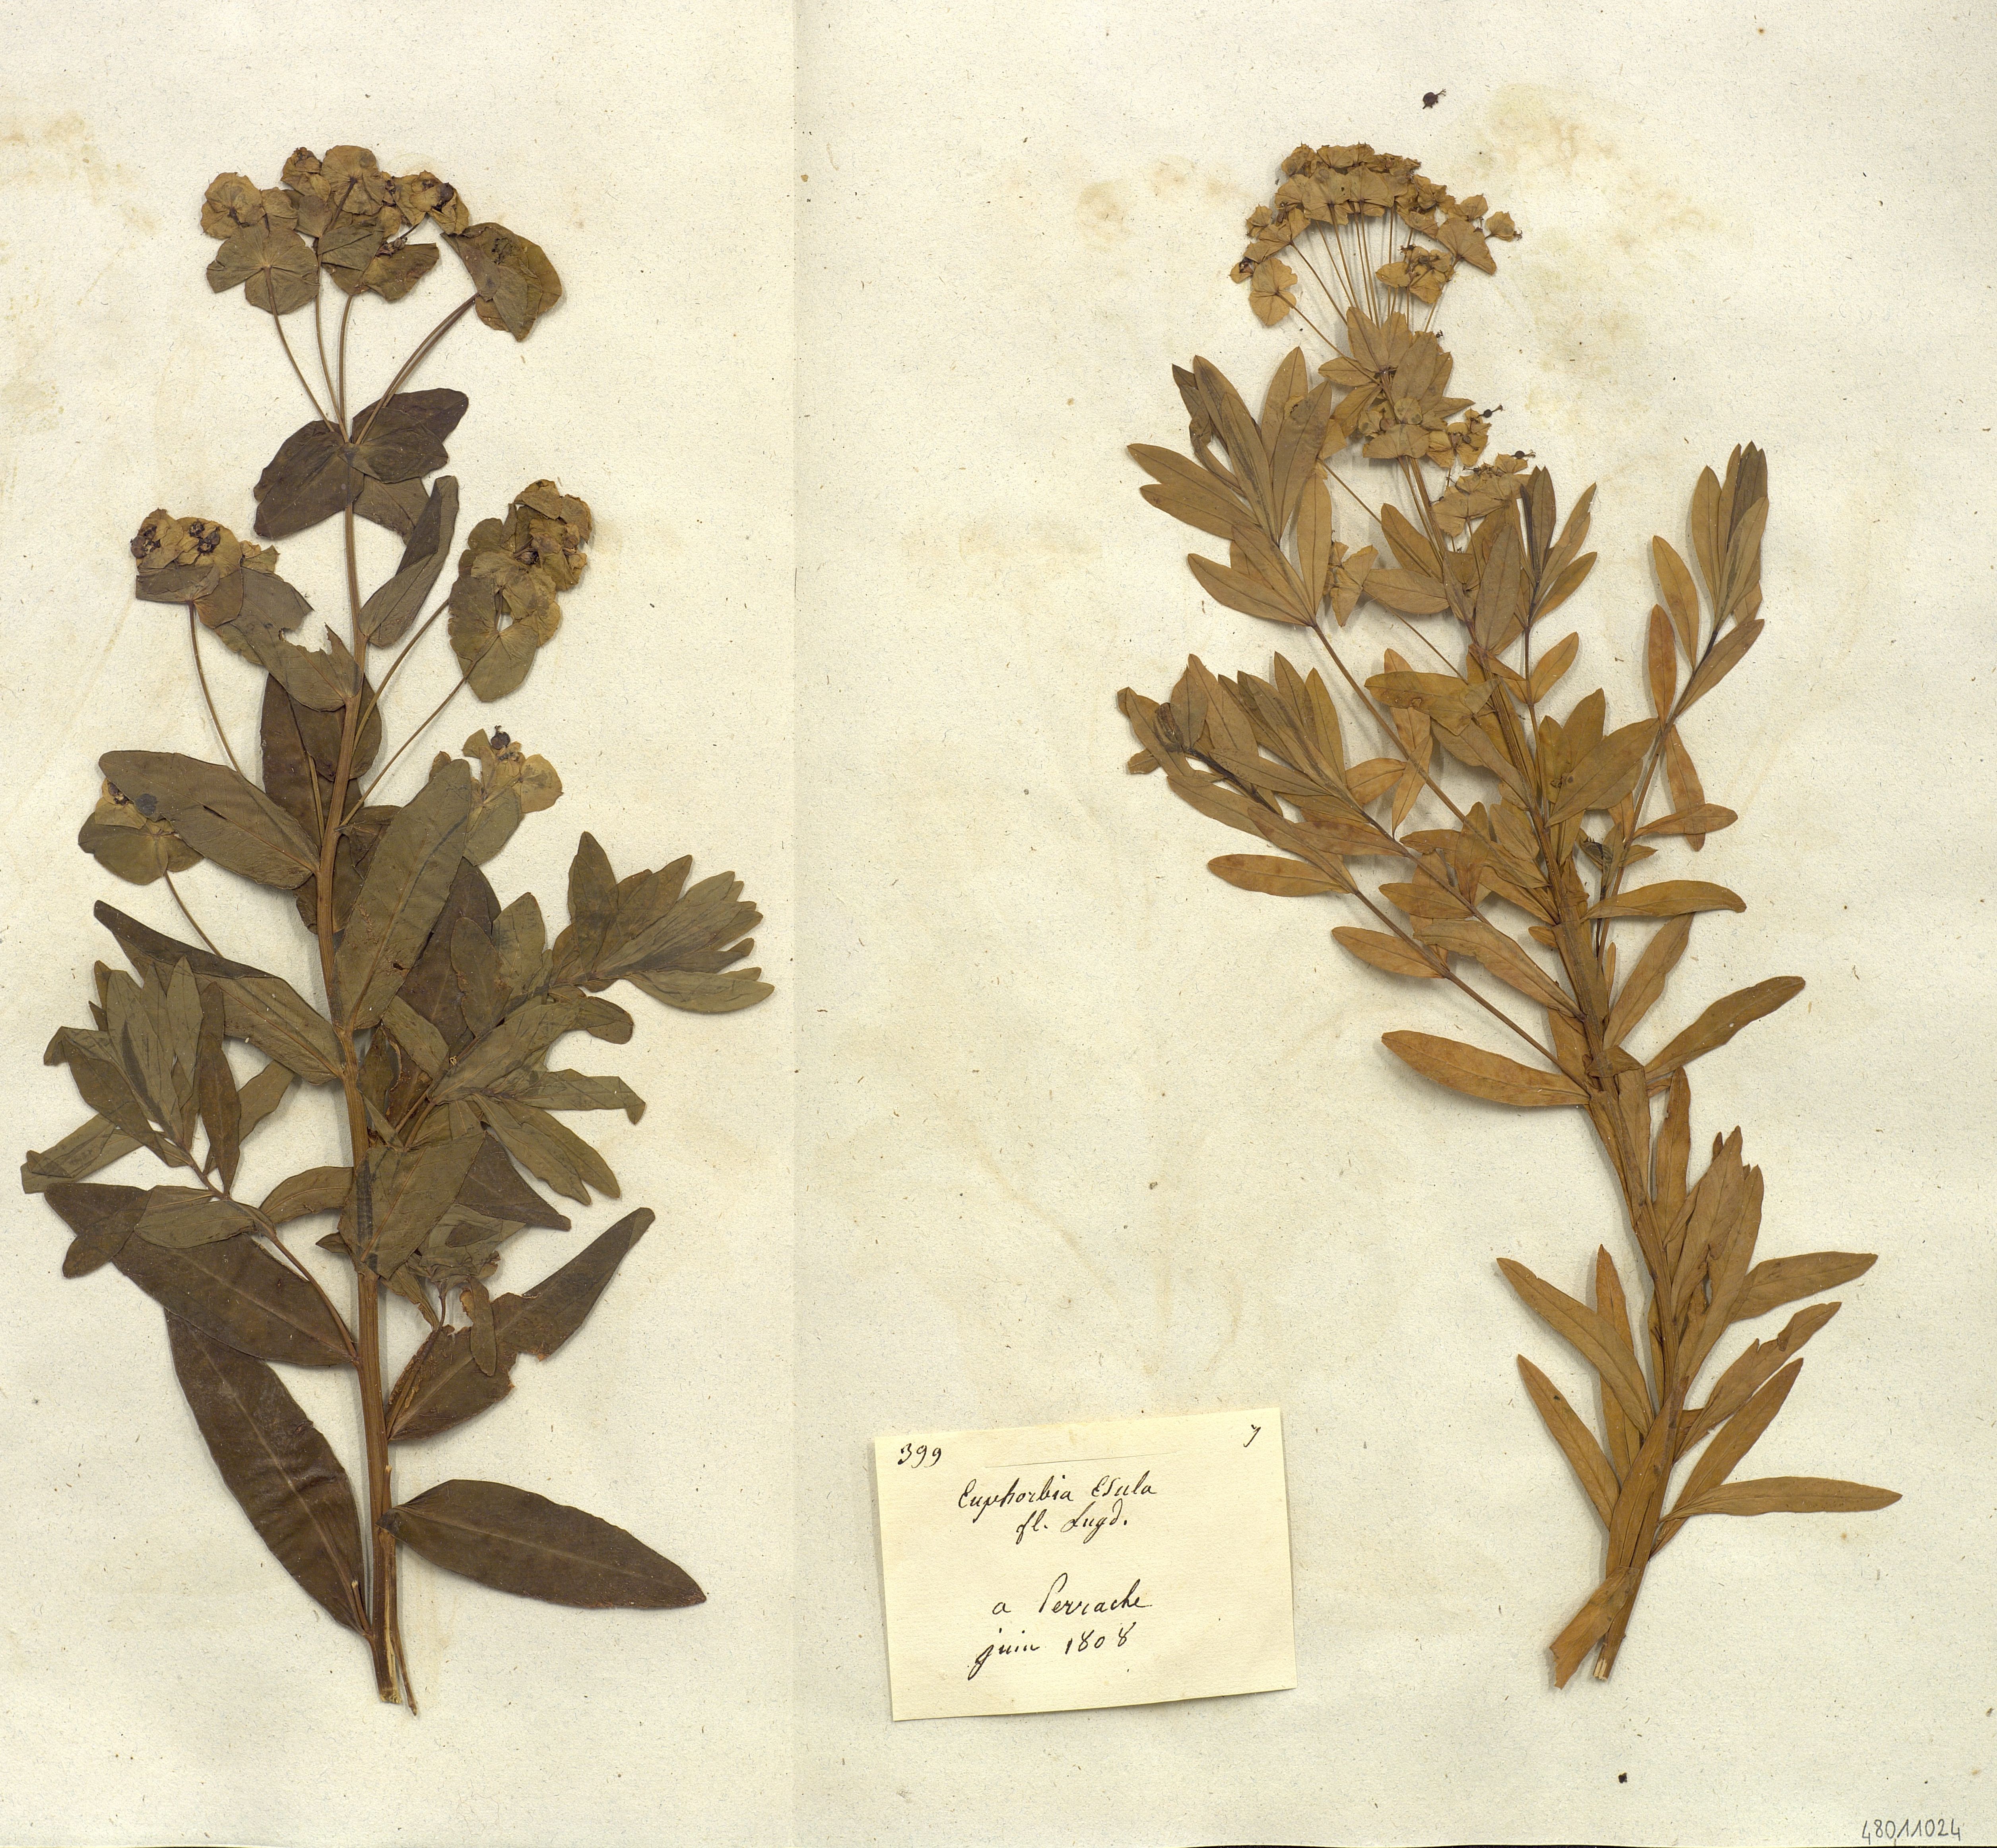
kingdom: Plantae
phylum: Tracheophyta
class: Magnoliopsida
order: Malpighiales
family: Euphorbiaceae
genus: Euphorbia
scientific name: Euphorbia esula
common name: Leafy spurge
